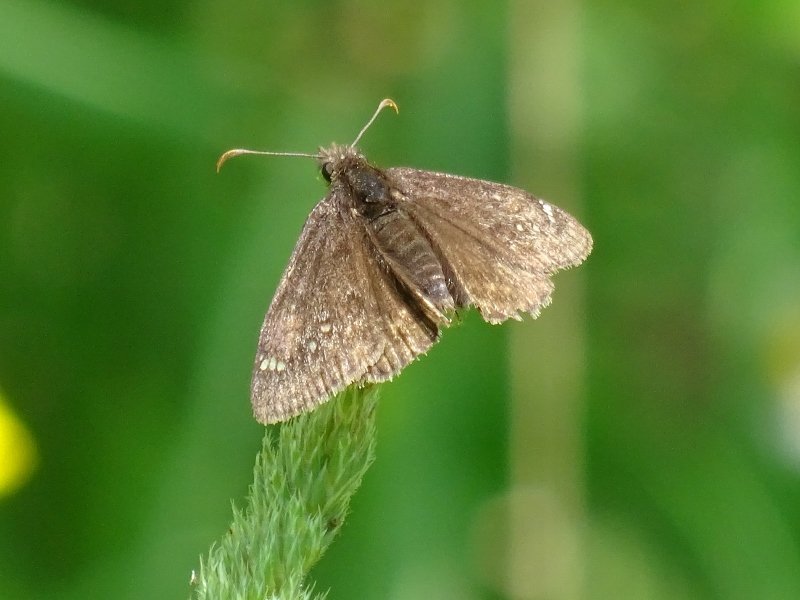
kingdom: Animalia
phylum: Arthropoda
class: Insecta
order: Lepidoptera
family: Hesperiidae
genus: Gesta
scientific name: Gesta
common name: Juvenal's Duskywing
